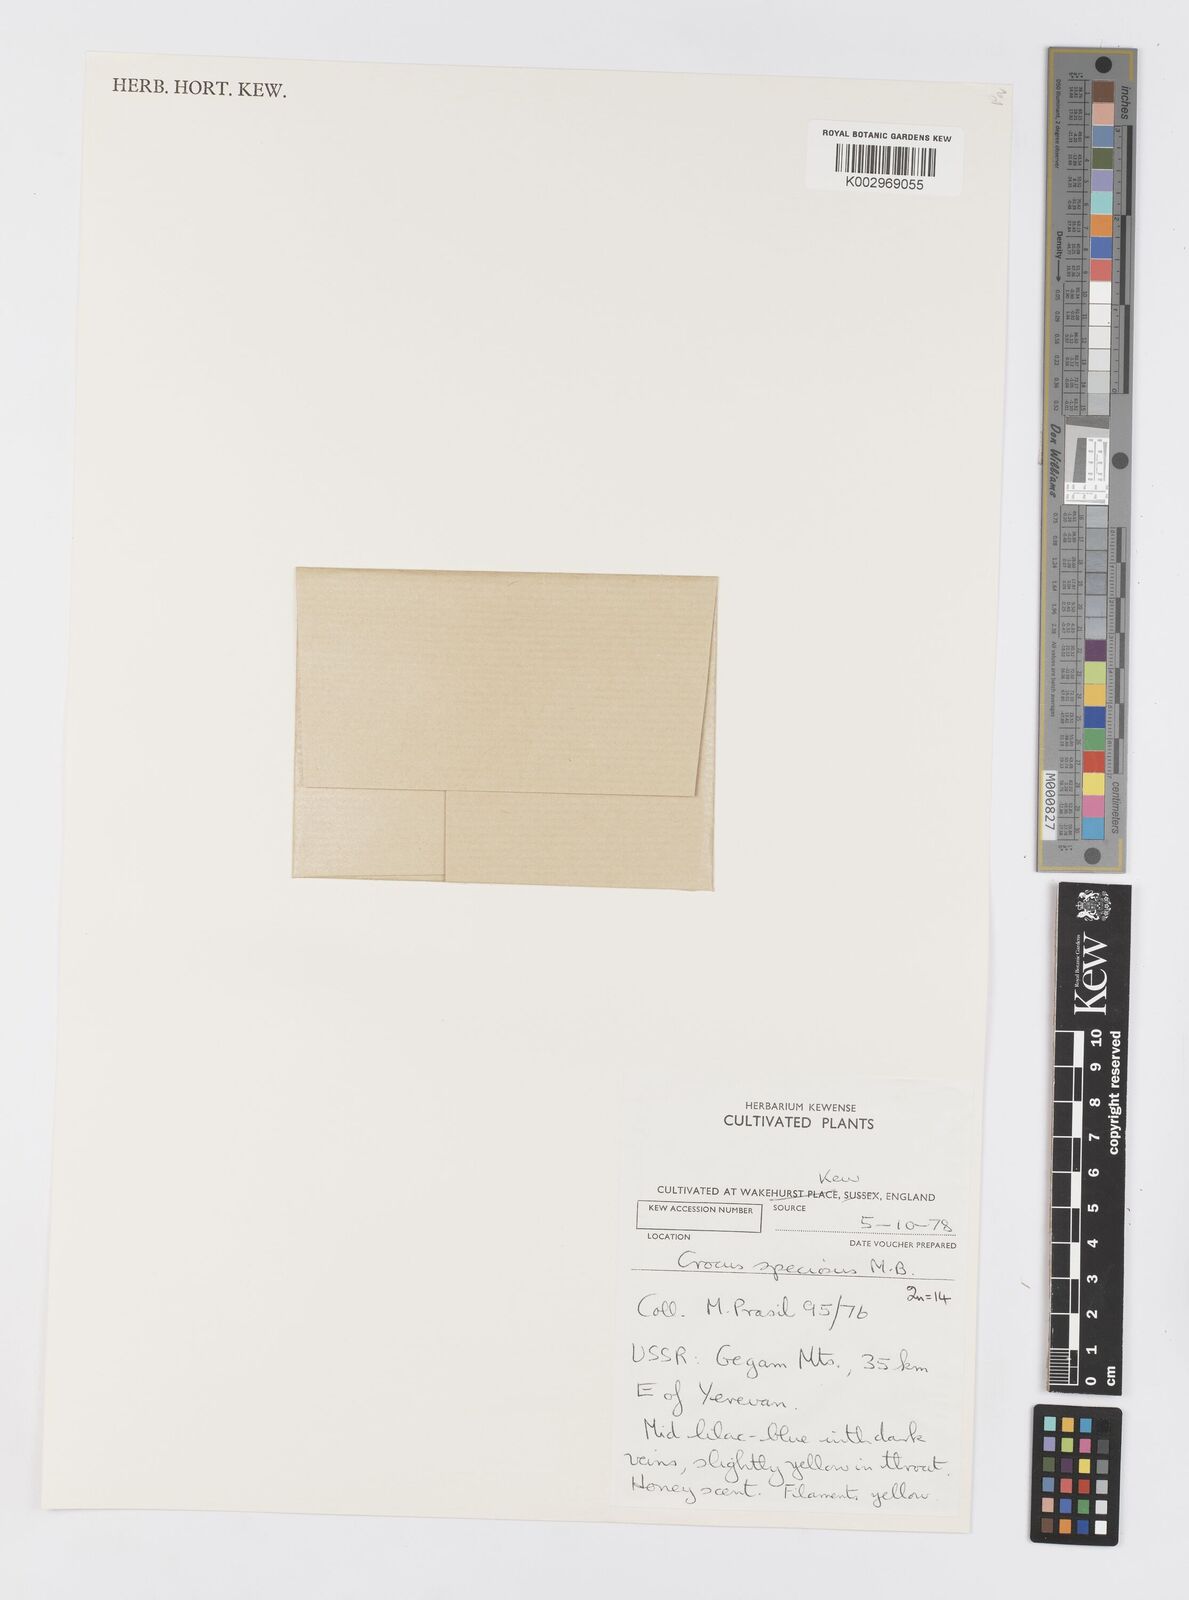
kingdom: Plantae
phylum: Tracheophyta
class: Liliopsida
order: Asparagales
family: Iridaceae
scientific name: Iridaceae
